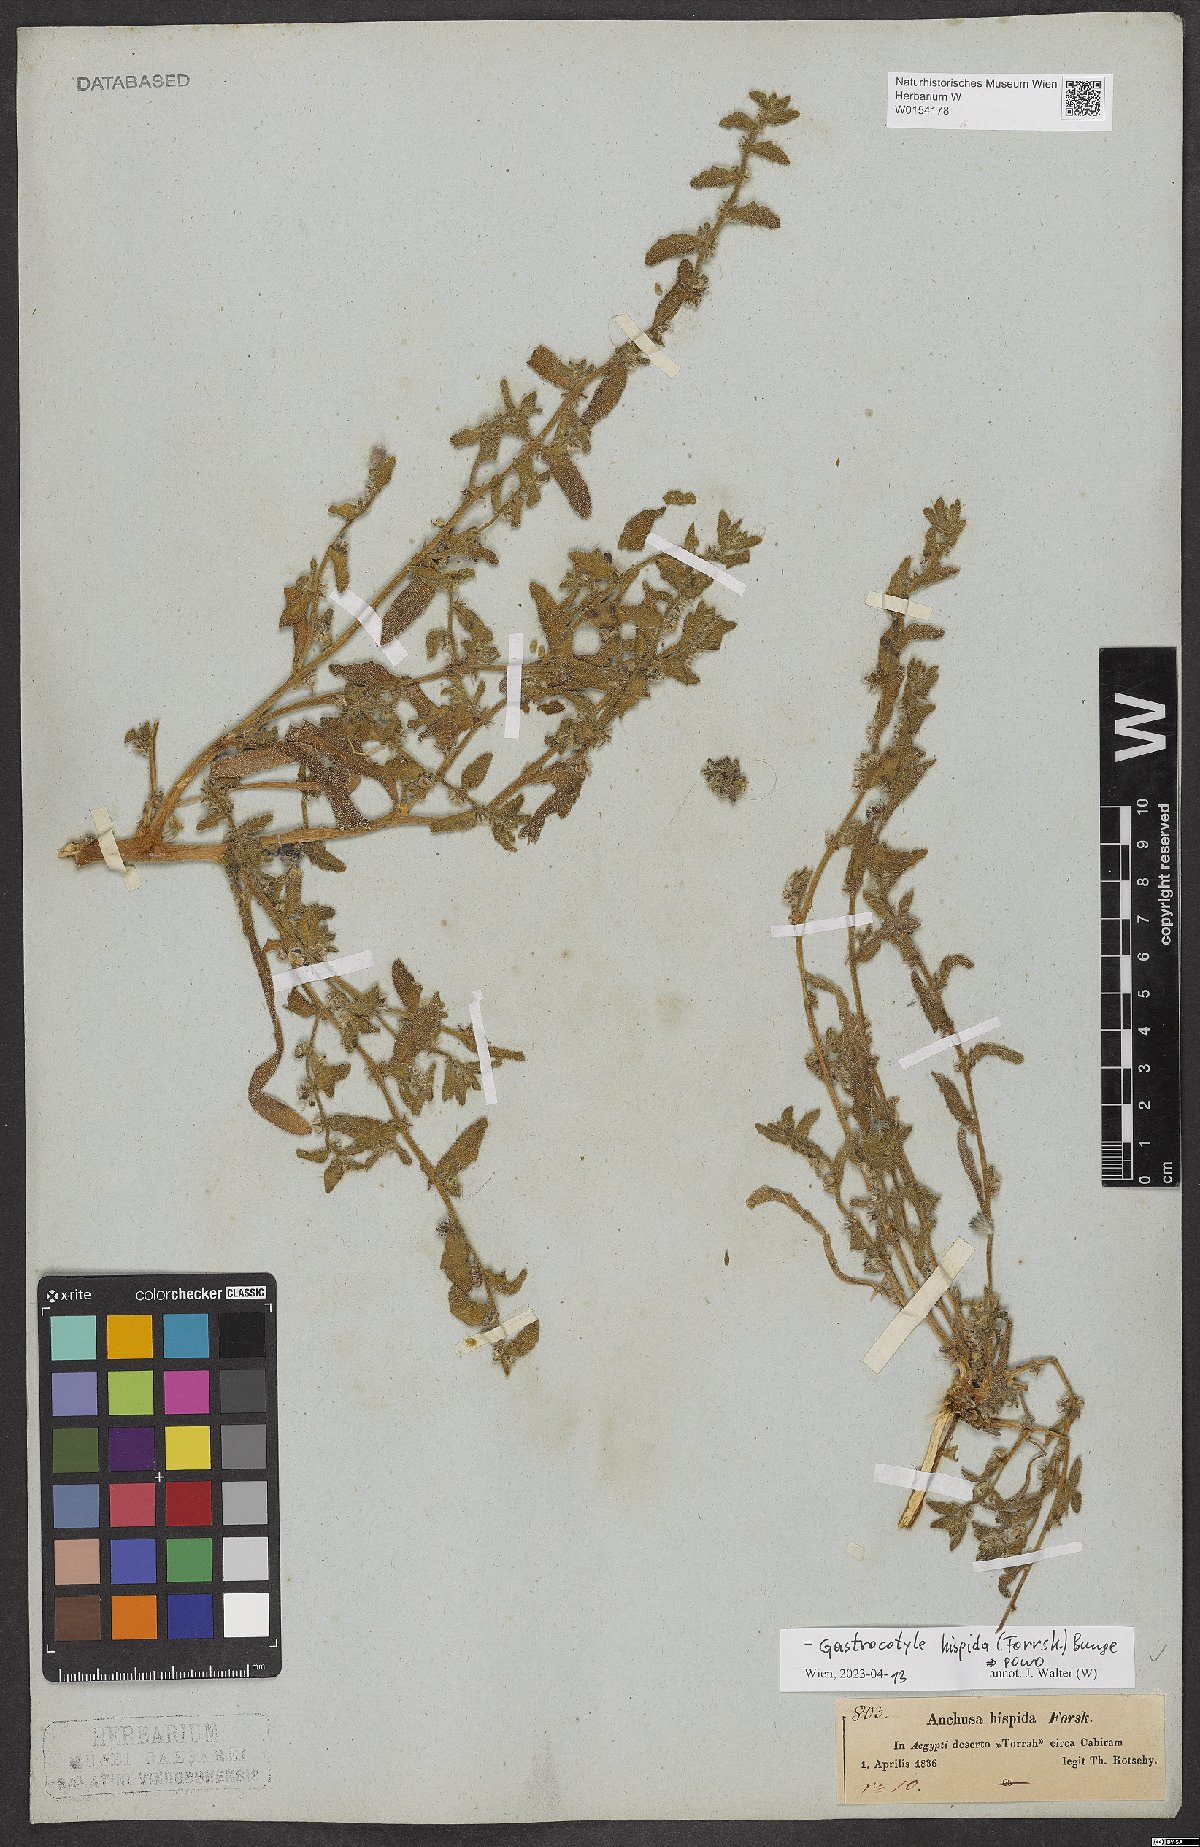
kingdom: Plantae
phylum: Tracheophyta
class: Magnoliopsida
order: Boraginales
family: Boraginaceae
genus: Gastrocotyle
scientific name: Gastrocotyle hispida
